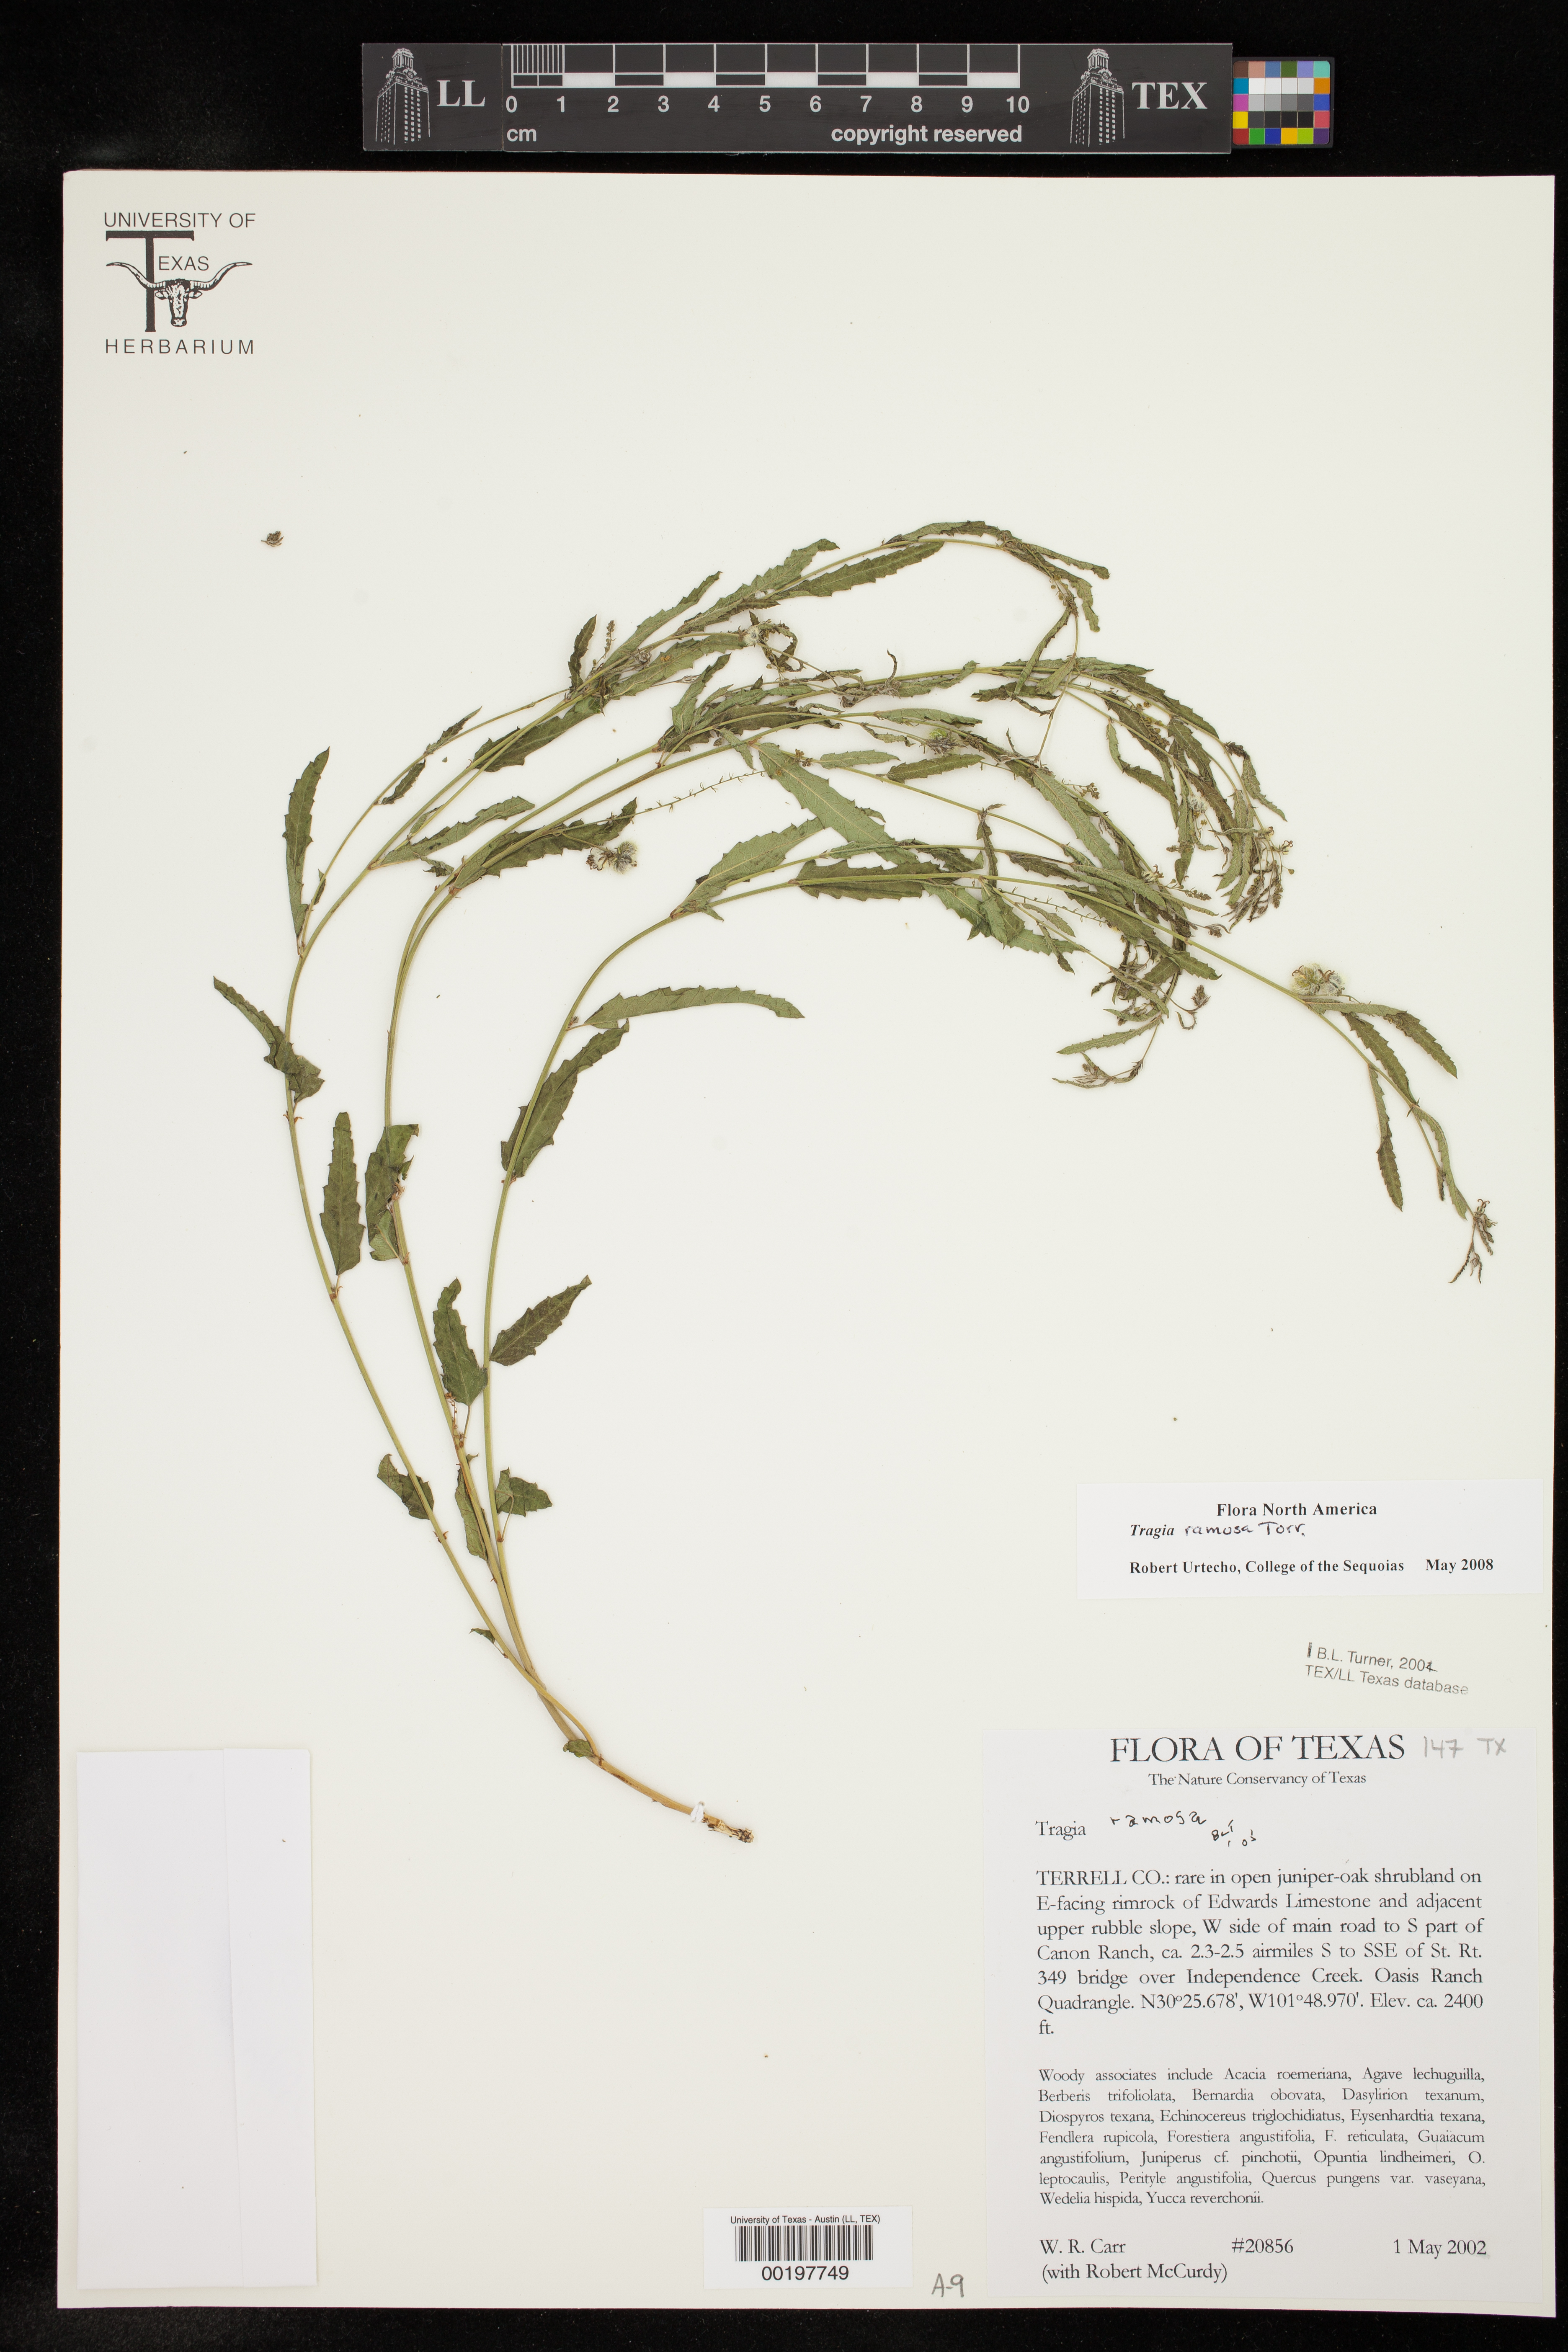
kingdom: Plantae
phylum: Tracheophyta
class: Magnoliopsida
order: Malpighiales
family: Euphorbiaceae
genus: Tragia
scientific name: Tragia ramosa
